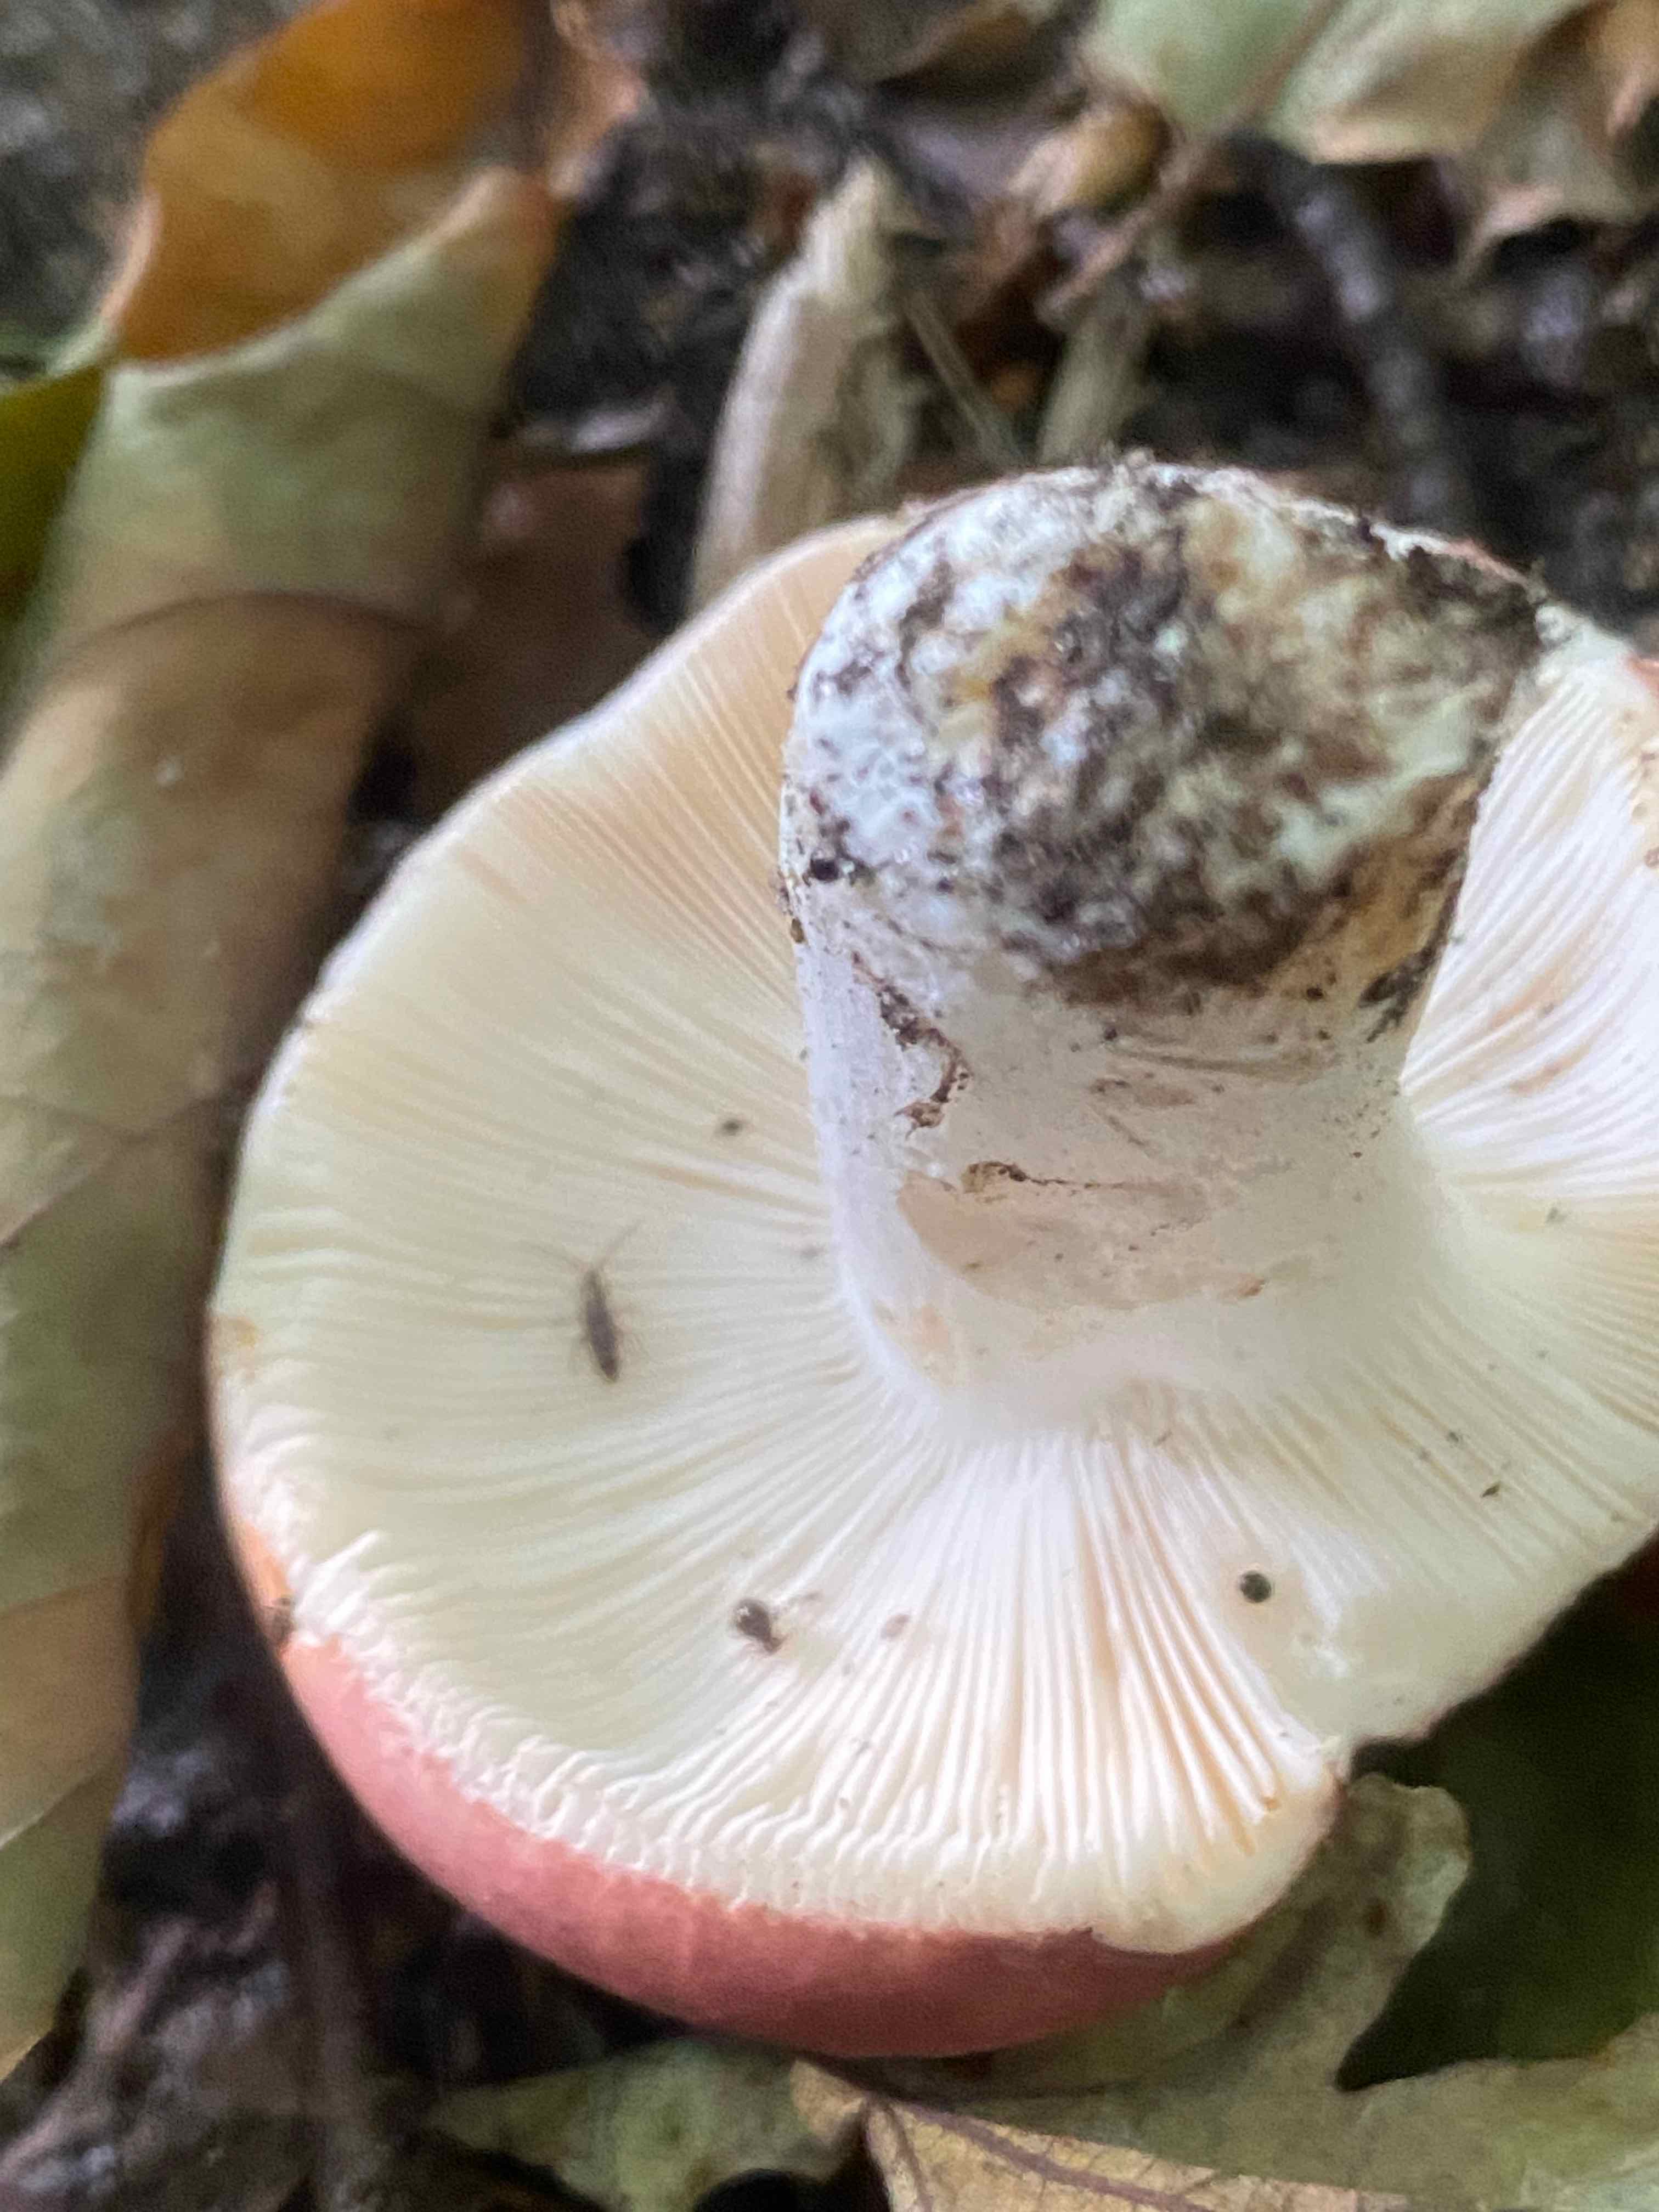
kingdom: Fungi
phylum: Basidiomycota
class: Agaricomycetes
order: Russulales
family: Russulaceae
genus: Russula
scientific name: Russula vesca
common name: spiselig skørhat
